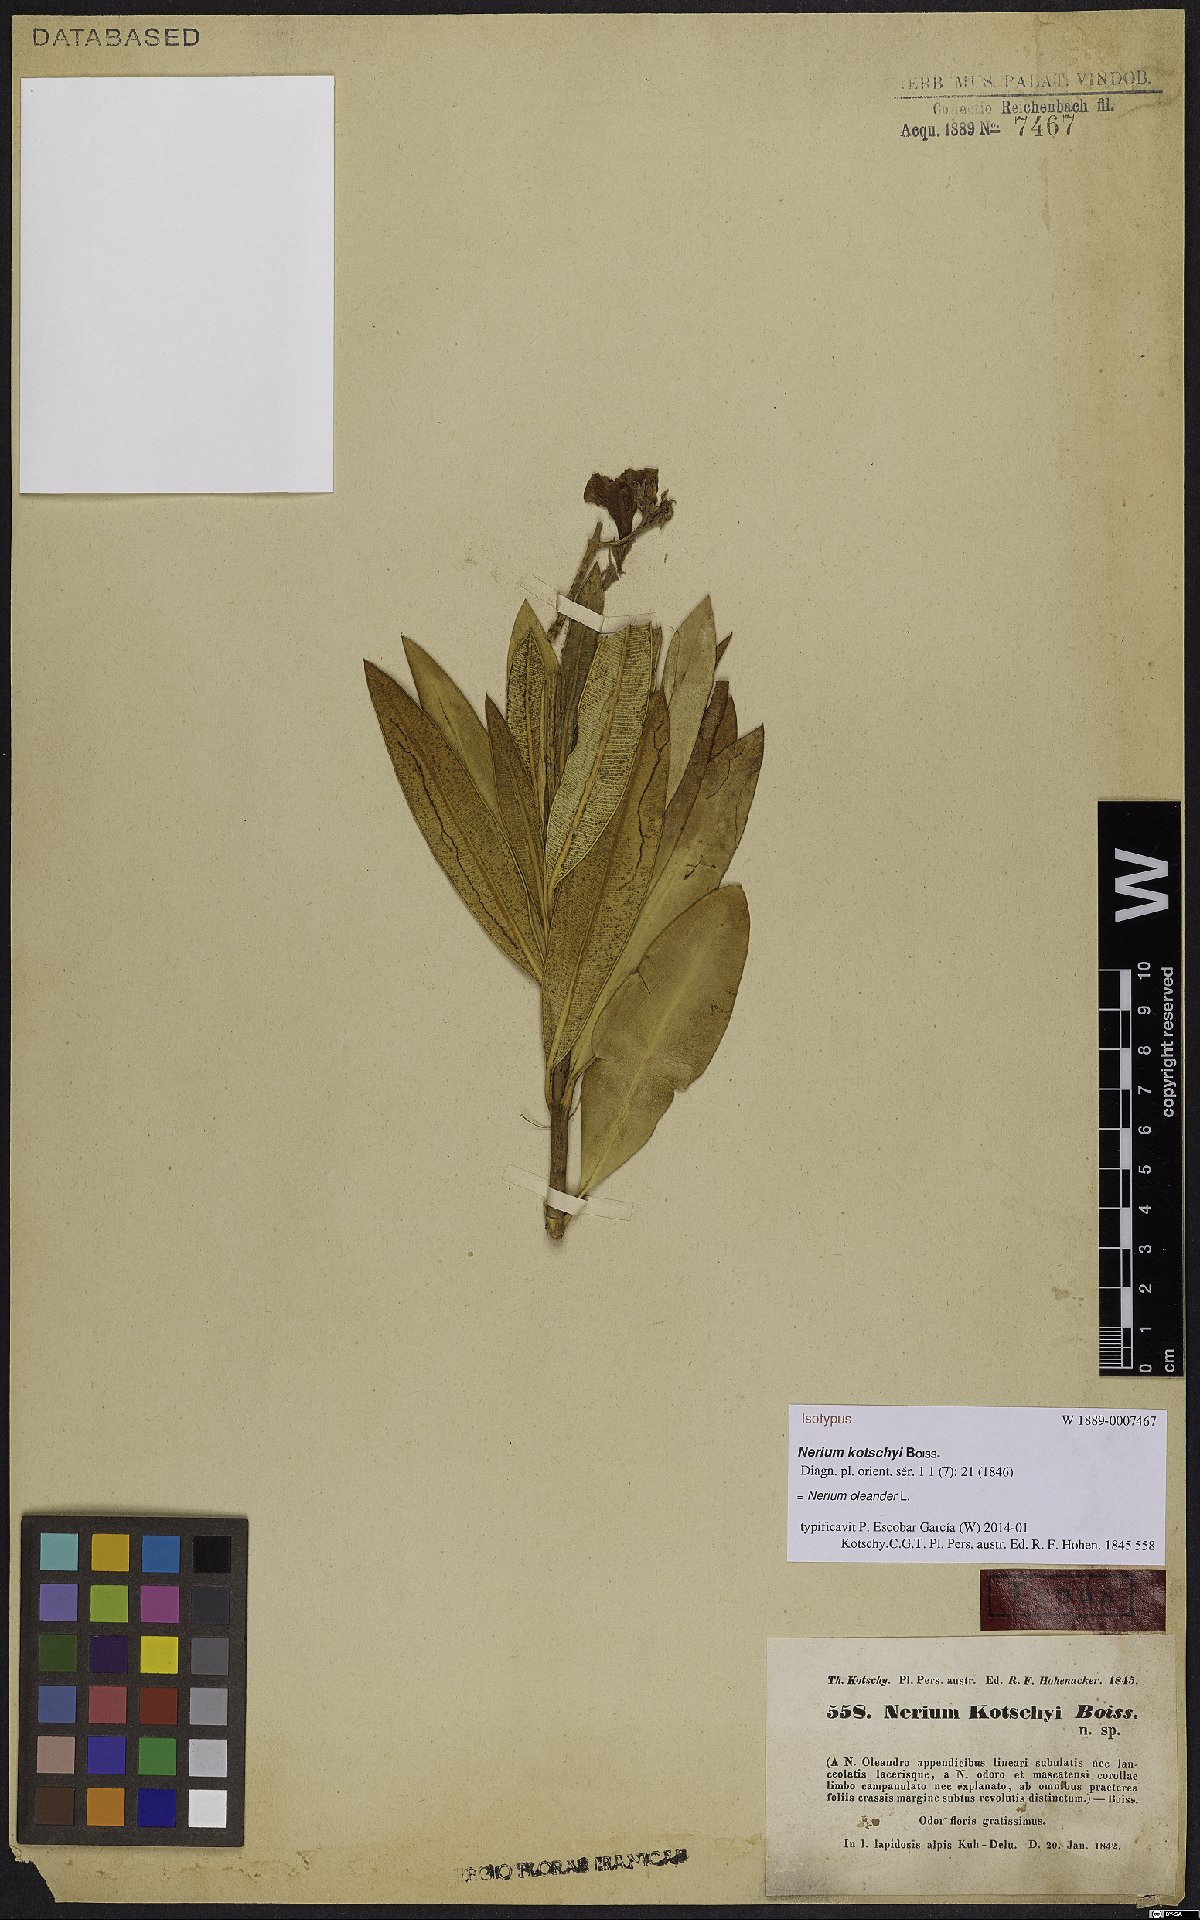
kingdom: Plantae
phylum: Tracheophyta
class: Magnoliopsida
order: Gentianales
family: Apocynaceae
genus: Nerium
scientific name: Nerium oleander
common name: Oleander
